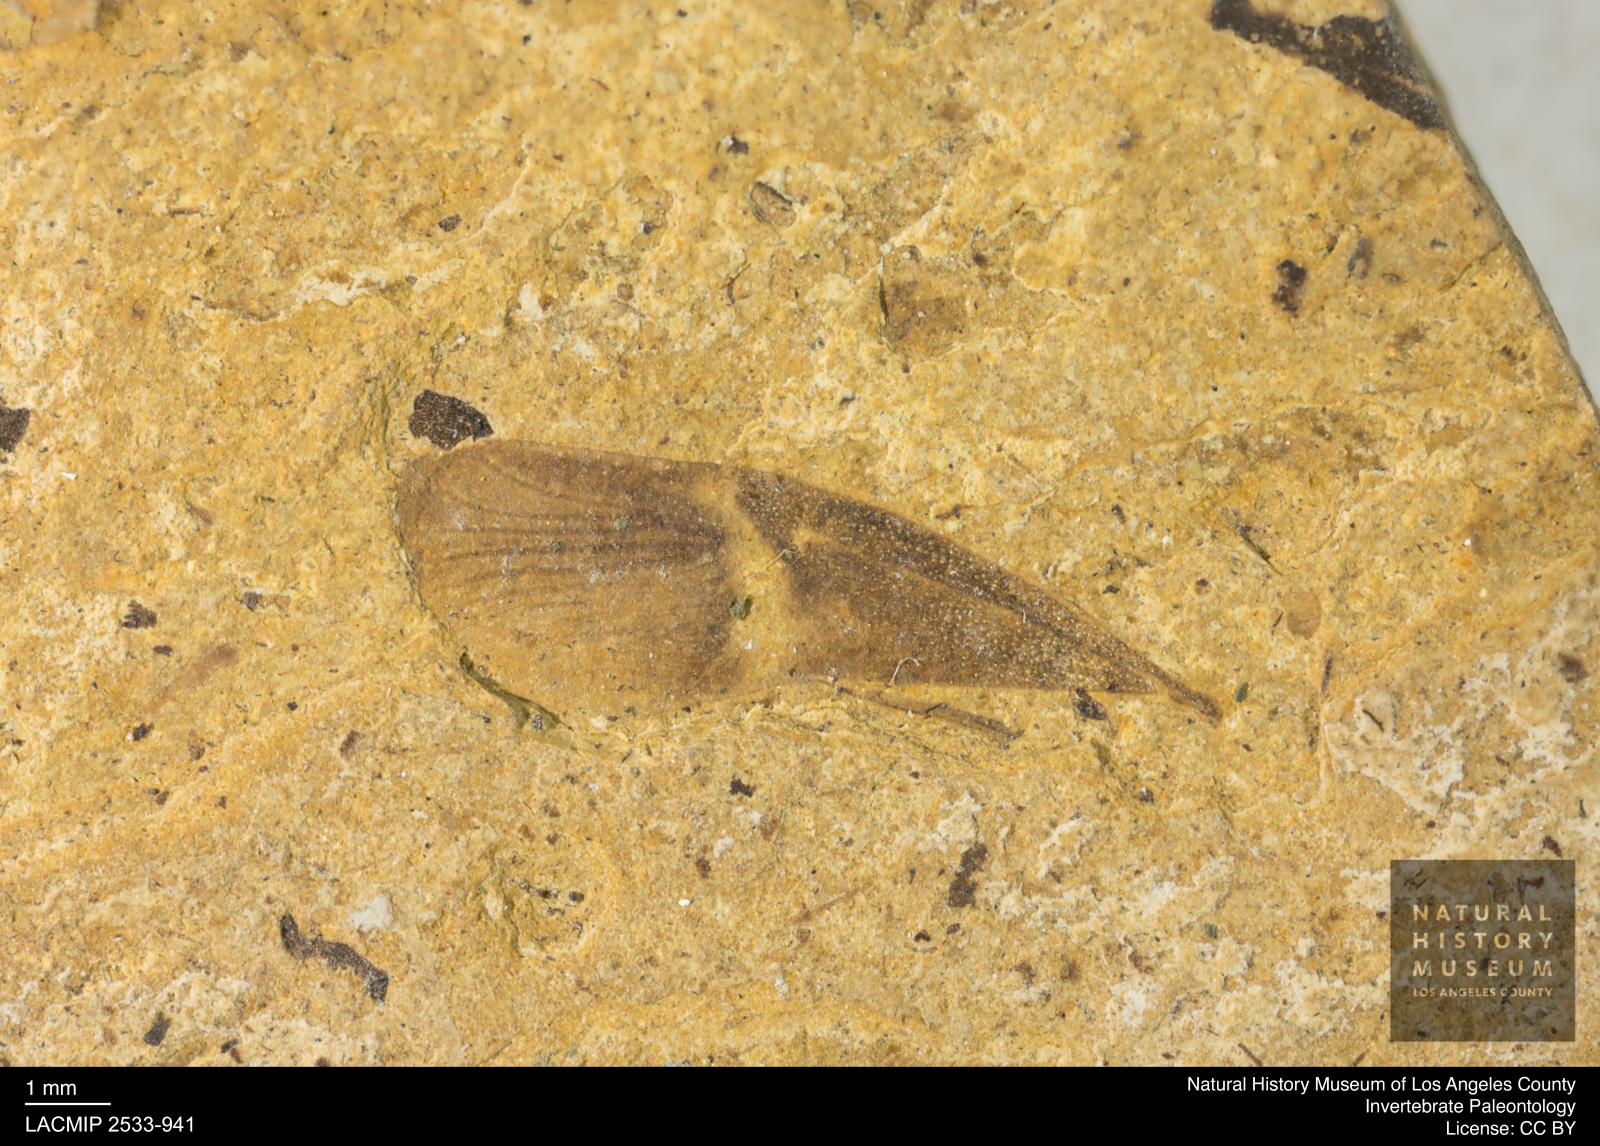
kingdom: Animalia
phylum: Arthropoda
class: Insecta
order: Hemiptera
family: Scutelleridae
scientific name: Scutelleridae
